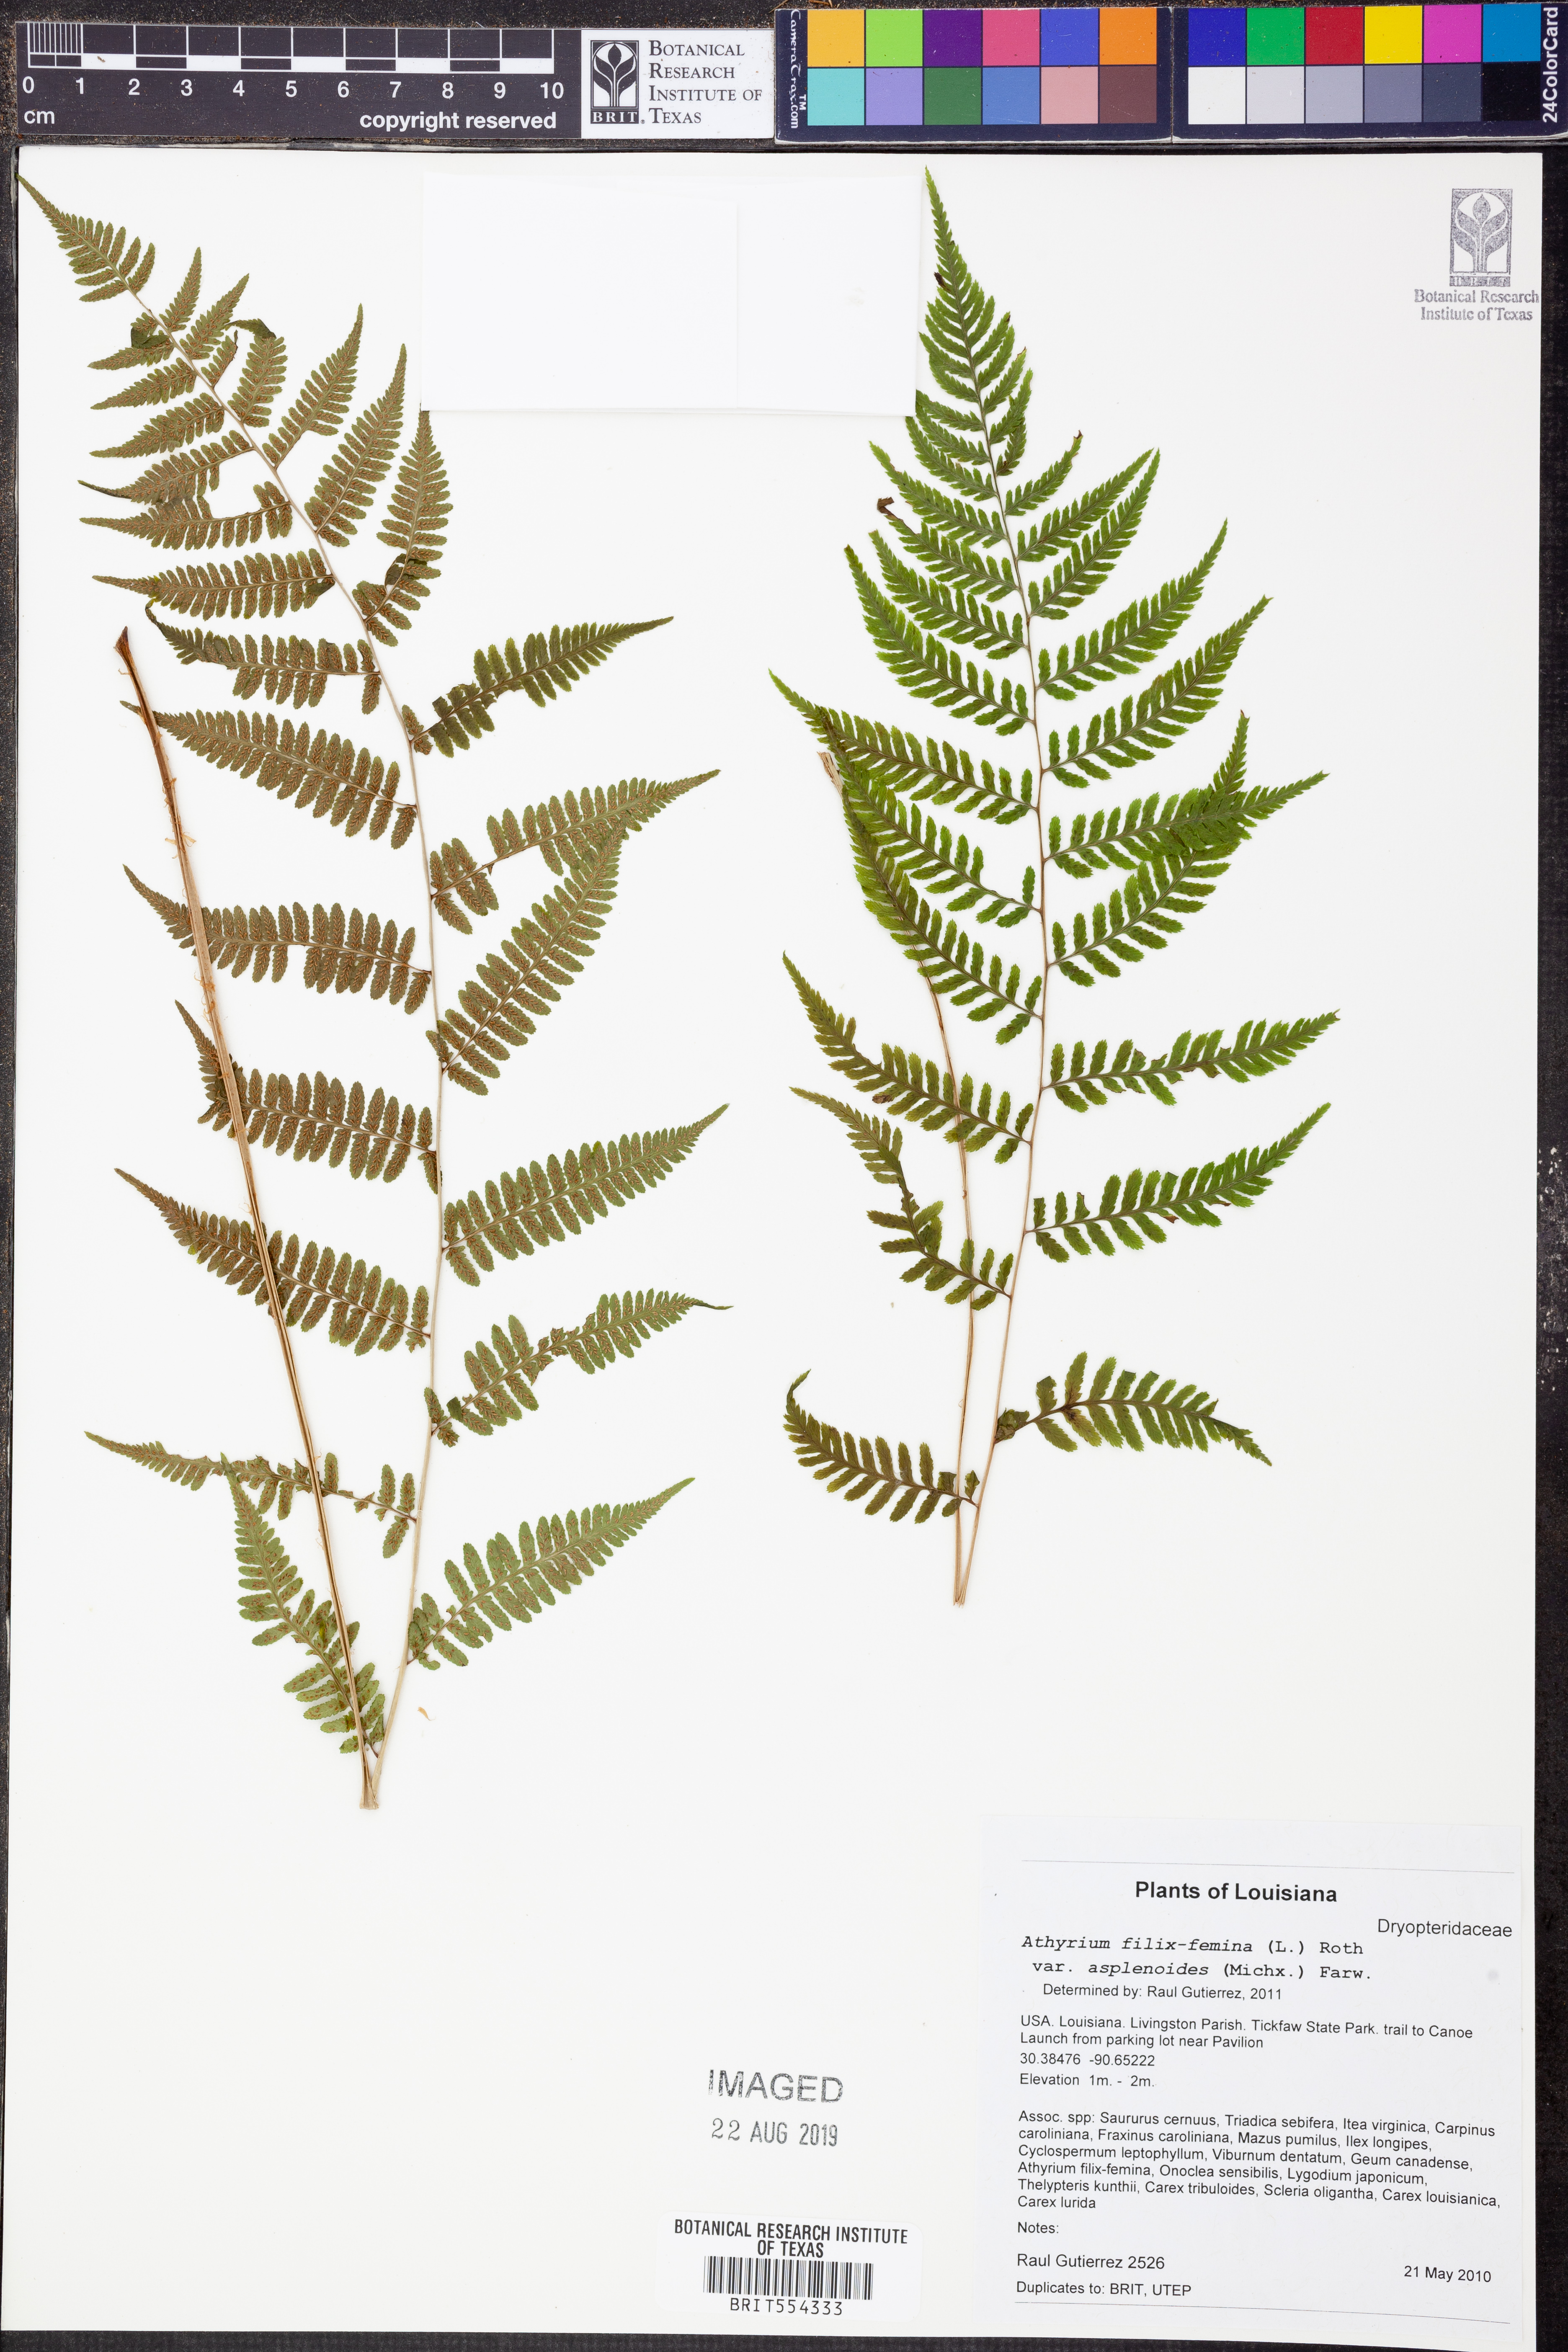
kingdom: Plantae
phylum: Tracheophyta
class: Polypodiopsida
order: Polypodiales
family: Athyriaceae
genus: Athyrium
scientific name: Athyrium asplenioides
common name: Southern lady fern
